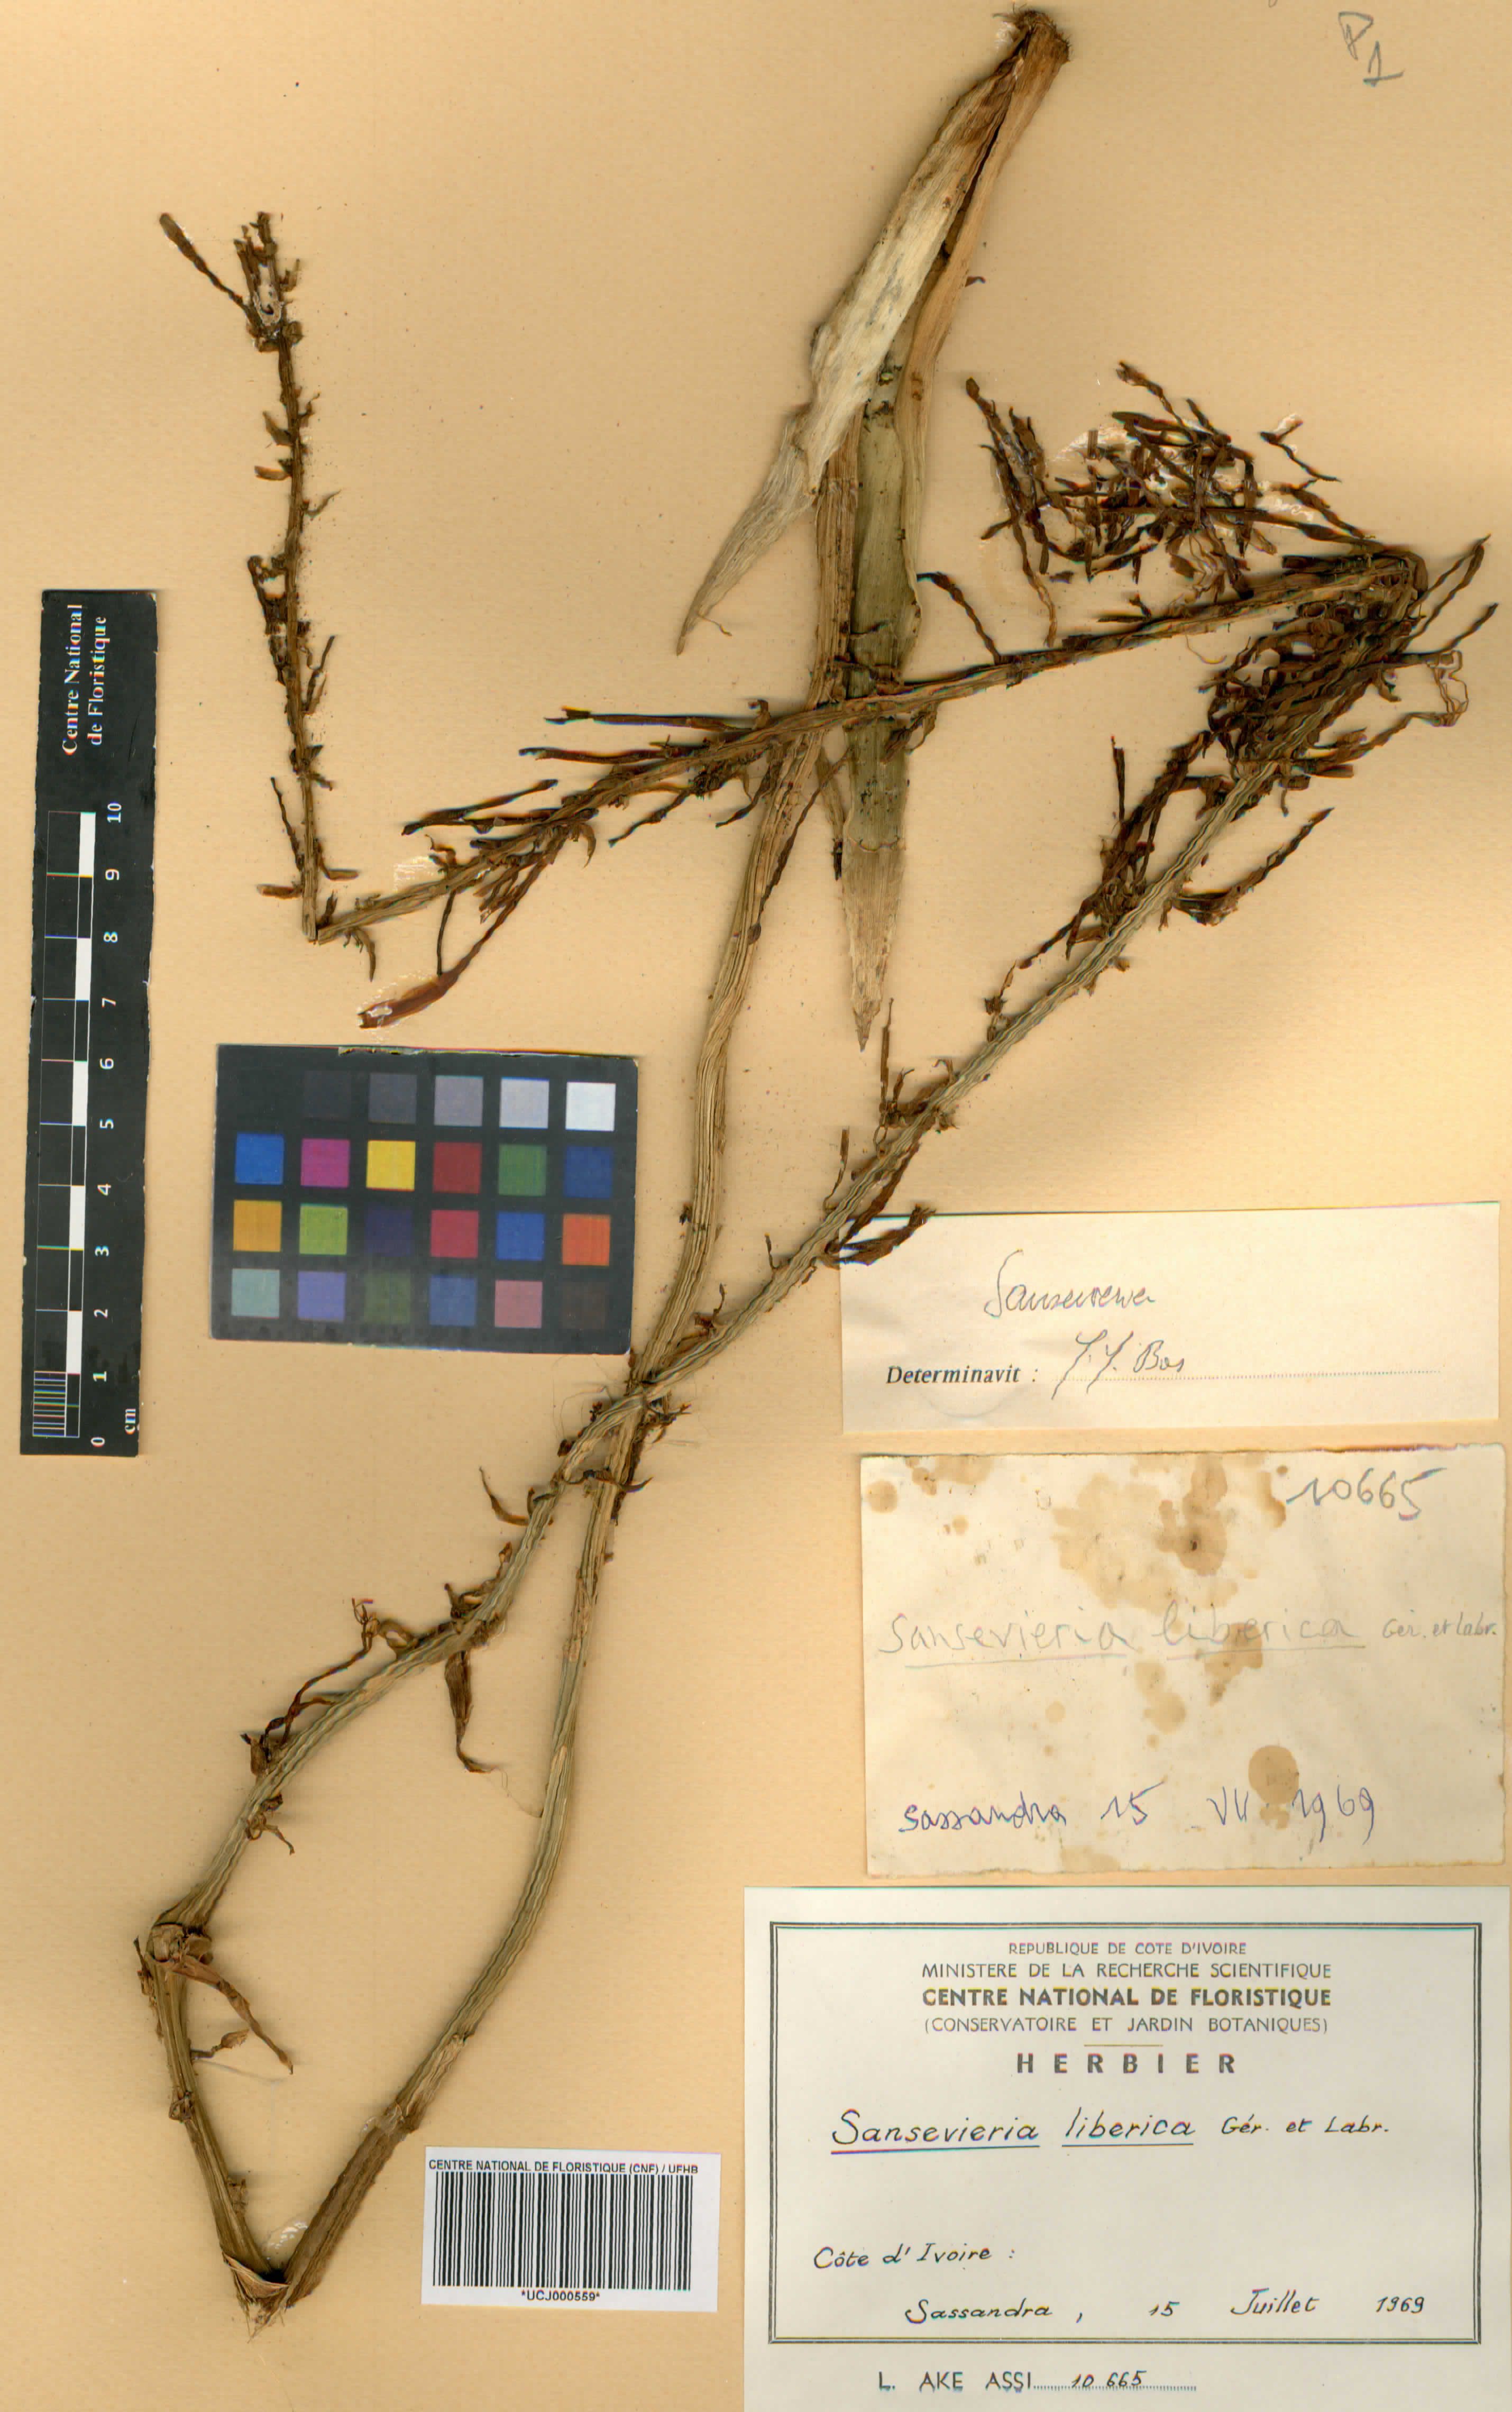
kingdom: Plantae
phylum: Tracheophyta
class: Liliopsida
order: Asparagales
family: Asparagaceae
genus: Dracaena
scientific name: Dracaena liberica
